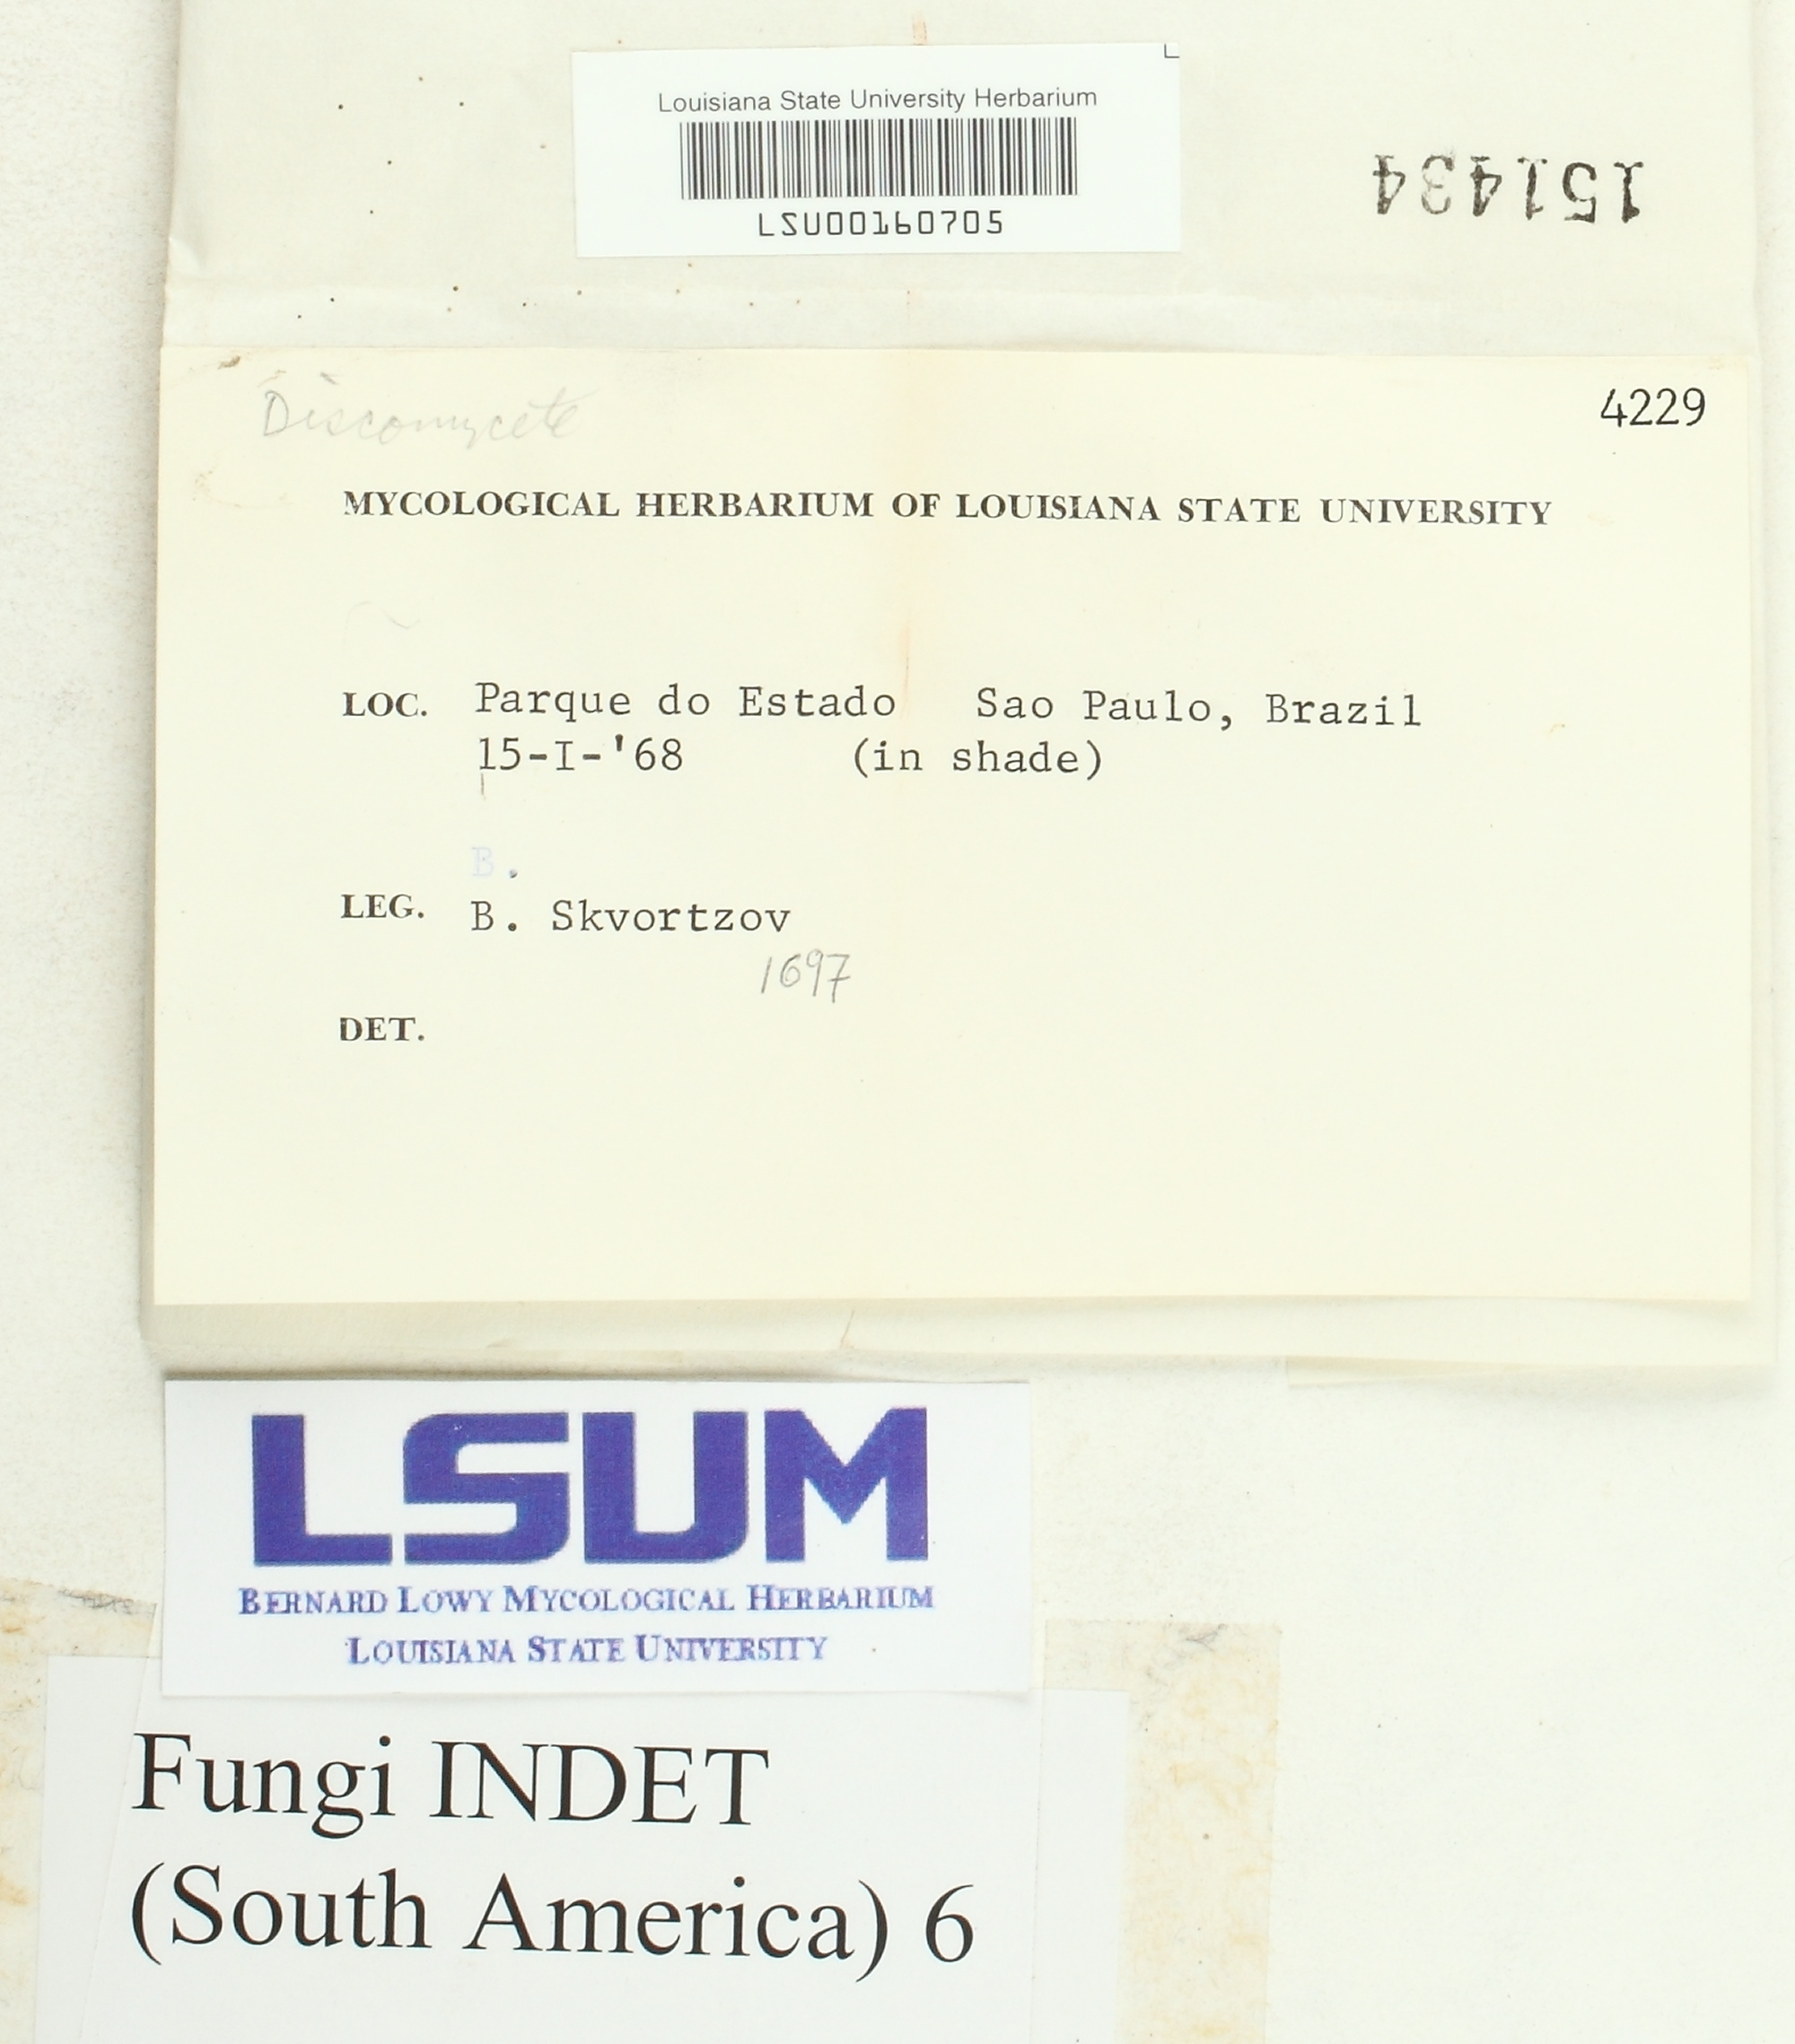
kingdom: Fungi
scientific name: Fungi
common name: Fungi
